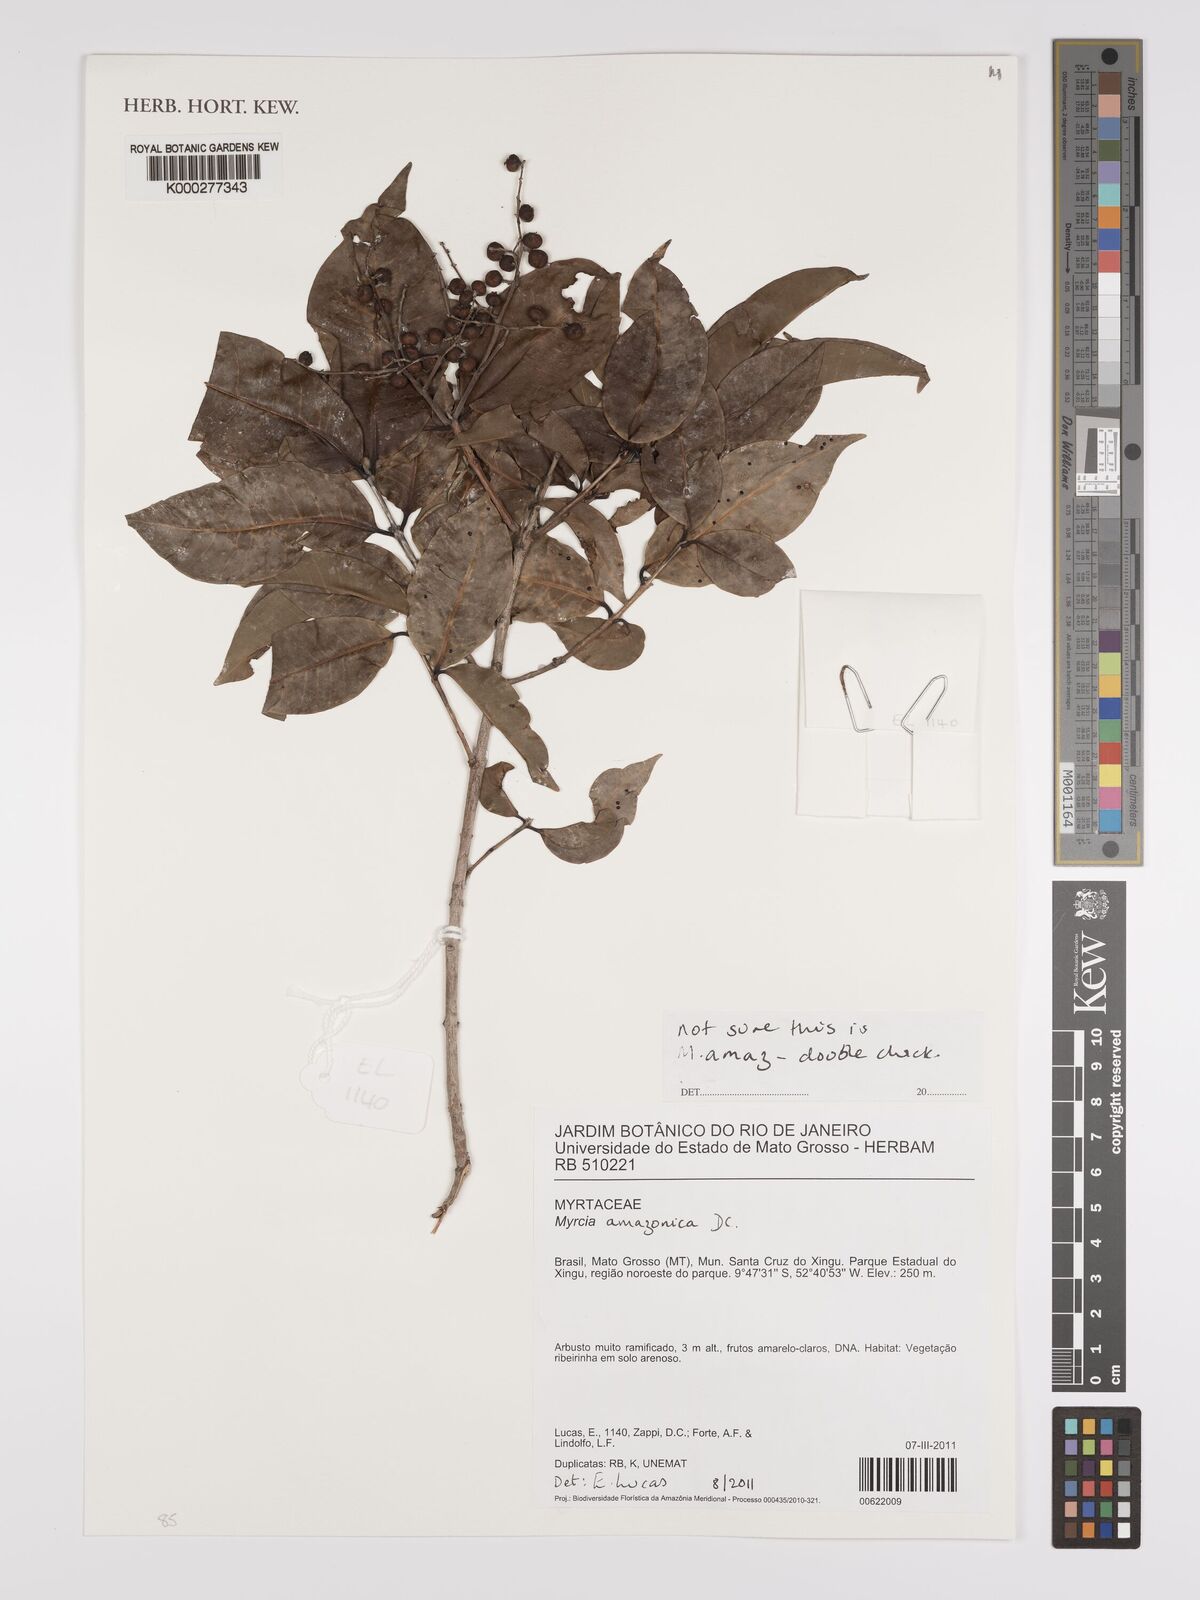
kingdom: Plantae
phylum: Tracheophyta
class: Magnoliopsida
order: Myrtales
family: Myrtaceae
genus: Myrcia
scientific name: Myrcia amazonica
